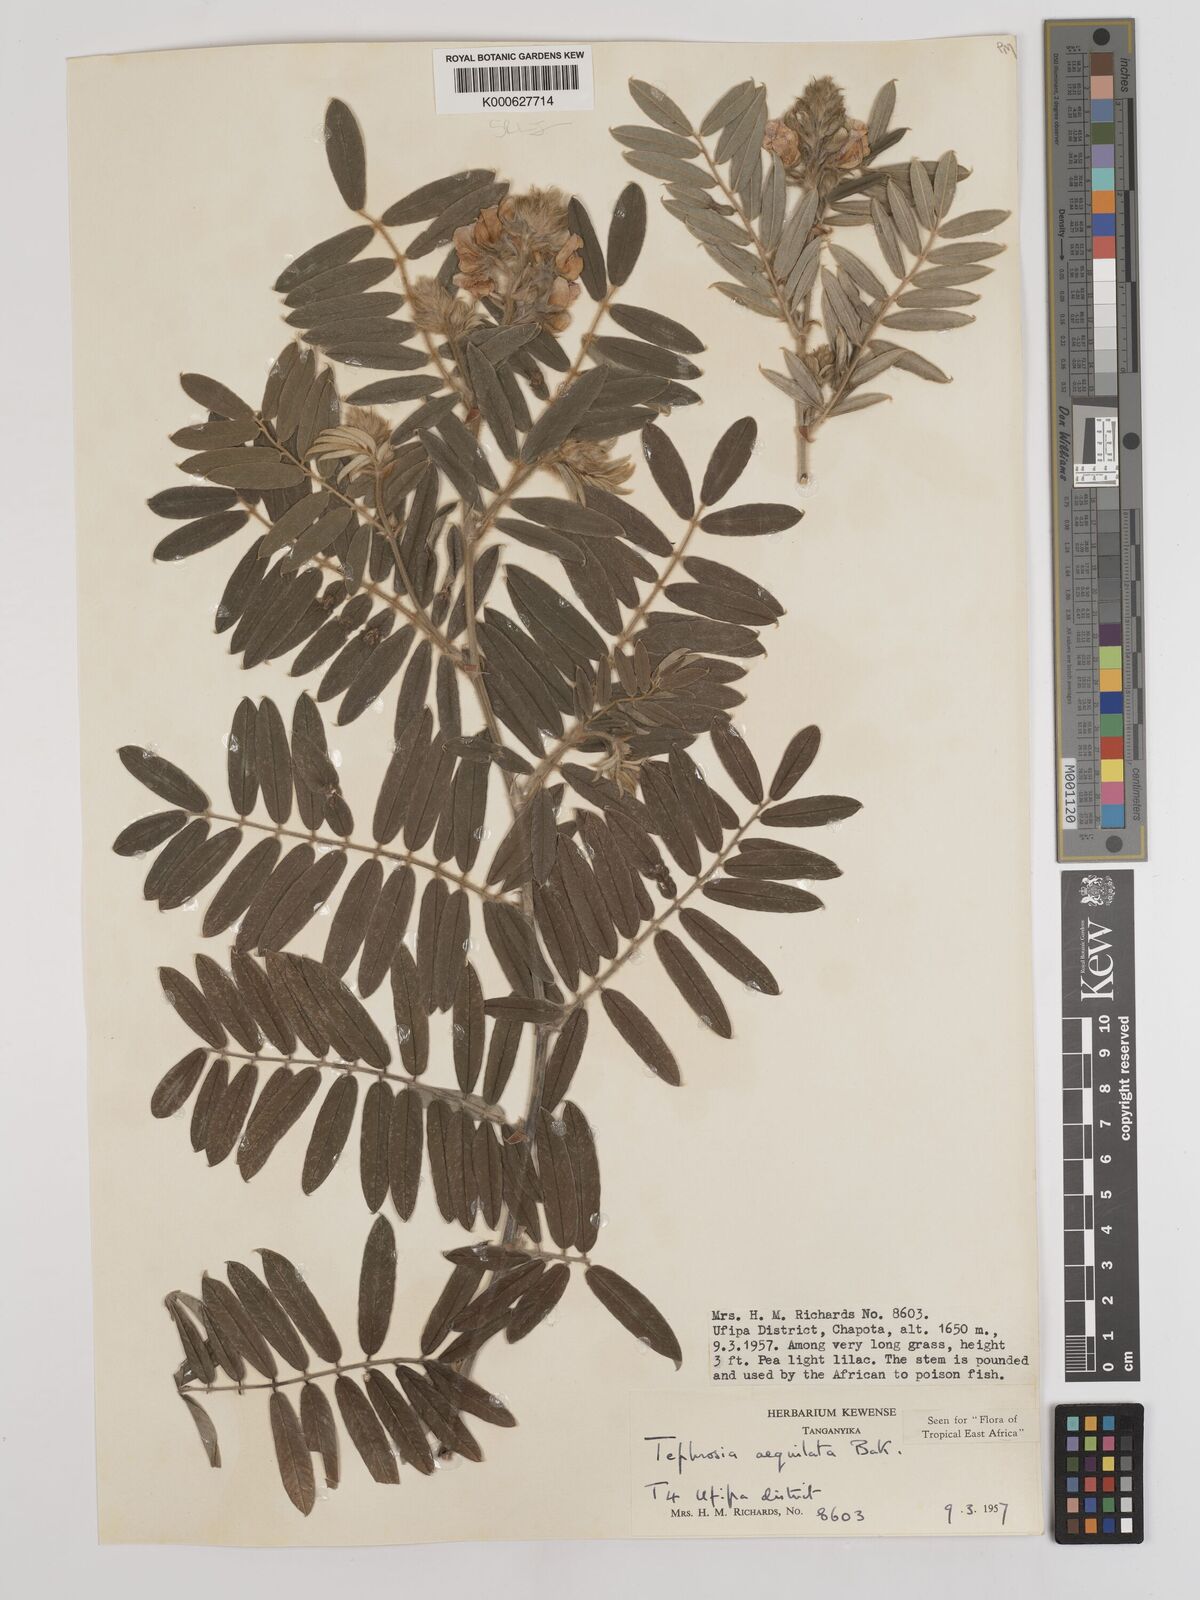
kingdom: Plantae
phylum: Tracheophyta
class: Magnoliopsida
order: Fabales
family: Fabaceae
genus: Tephrosia
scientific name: Tephrosia aequilata
